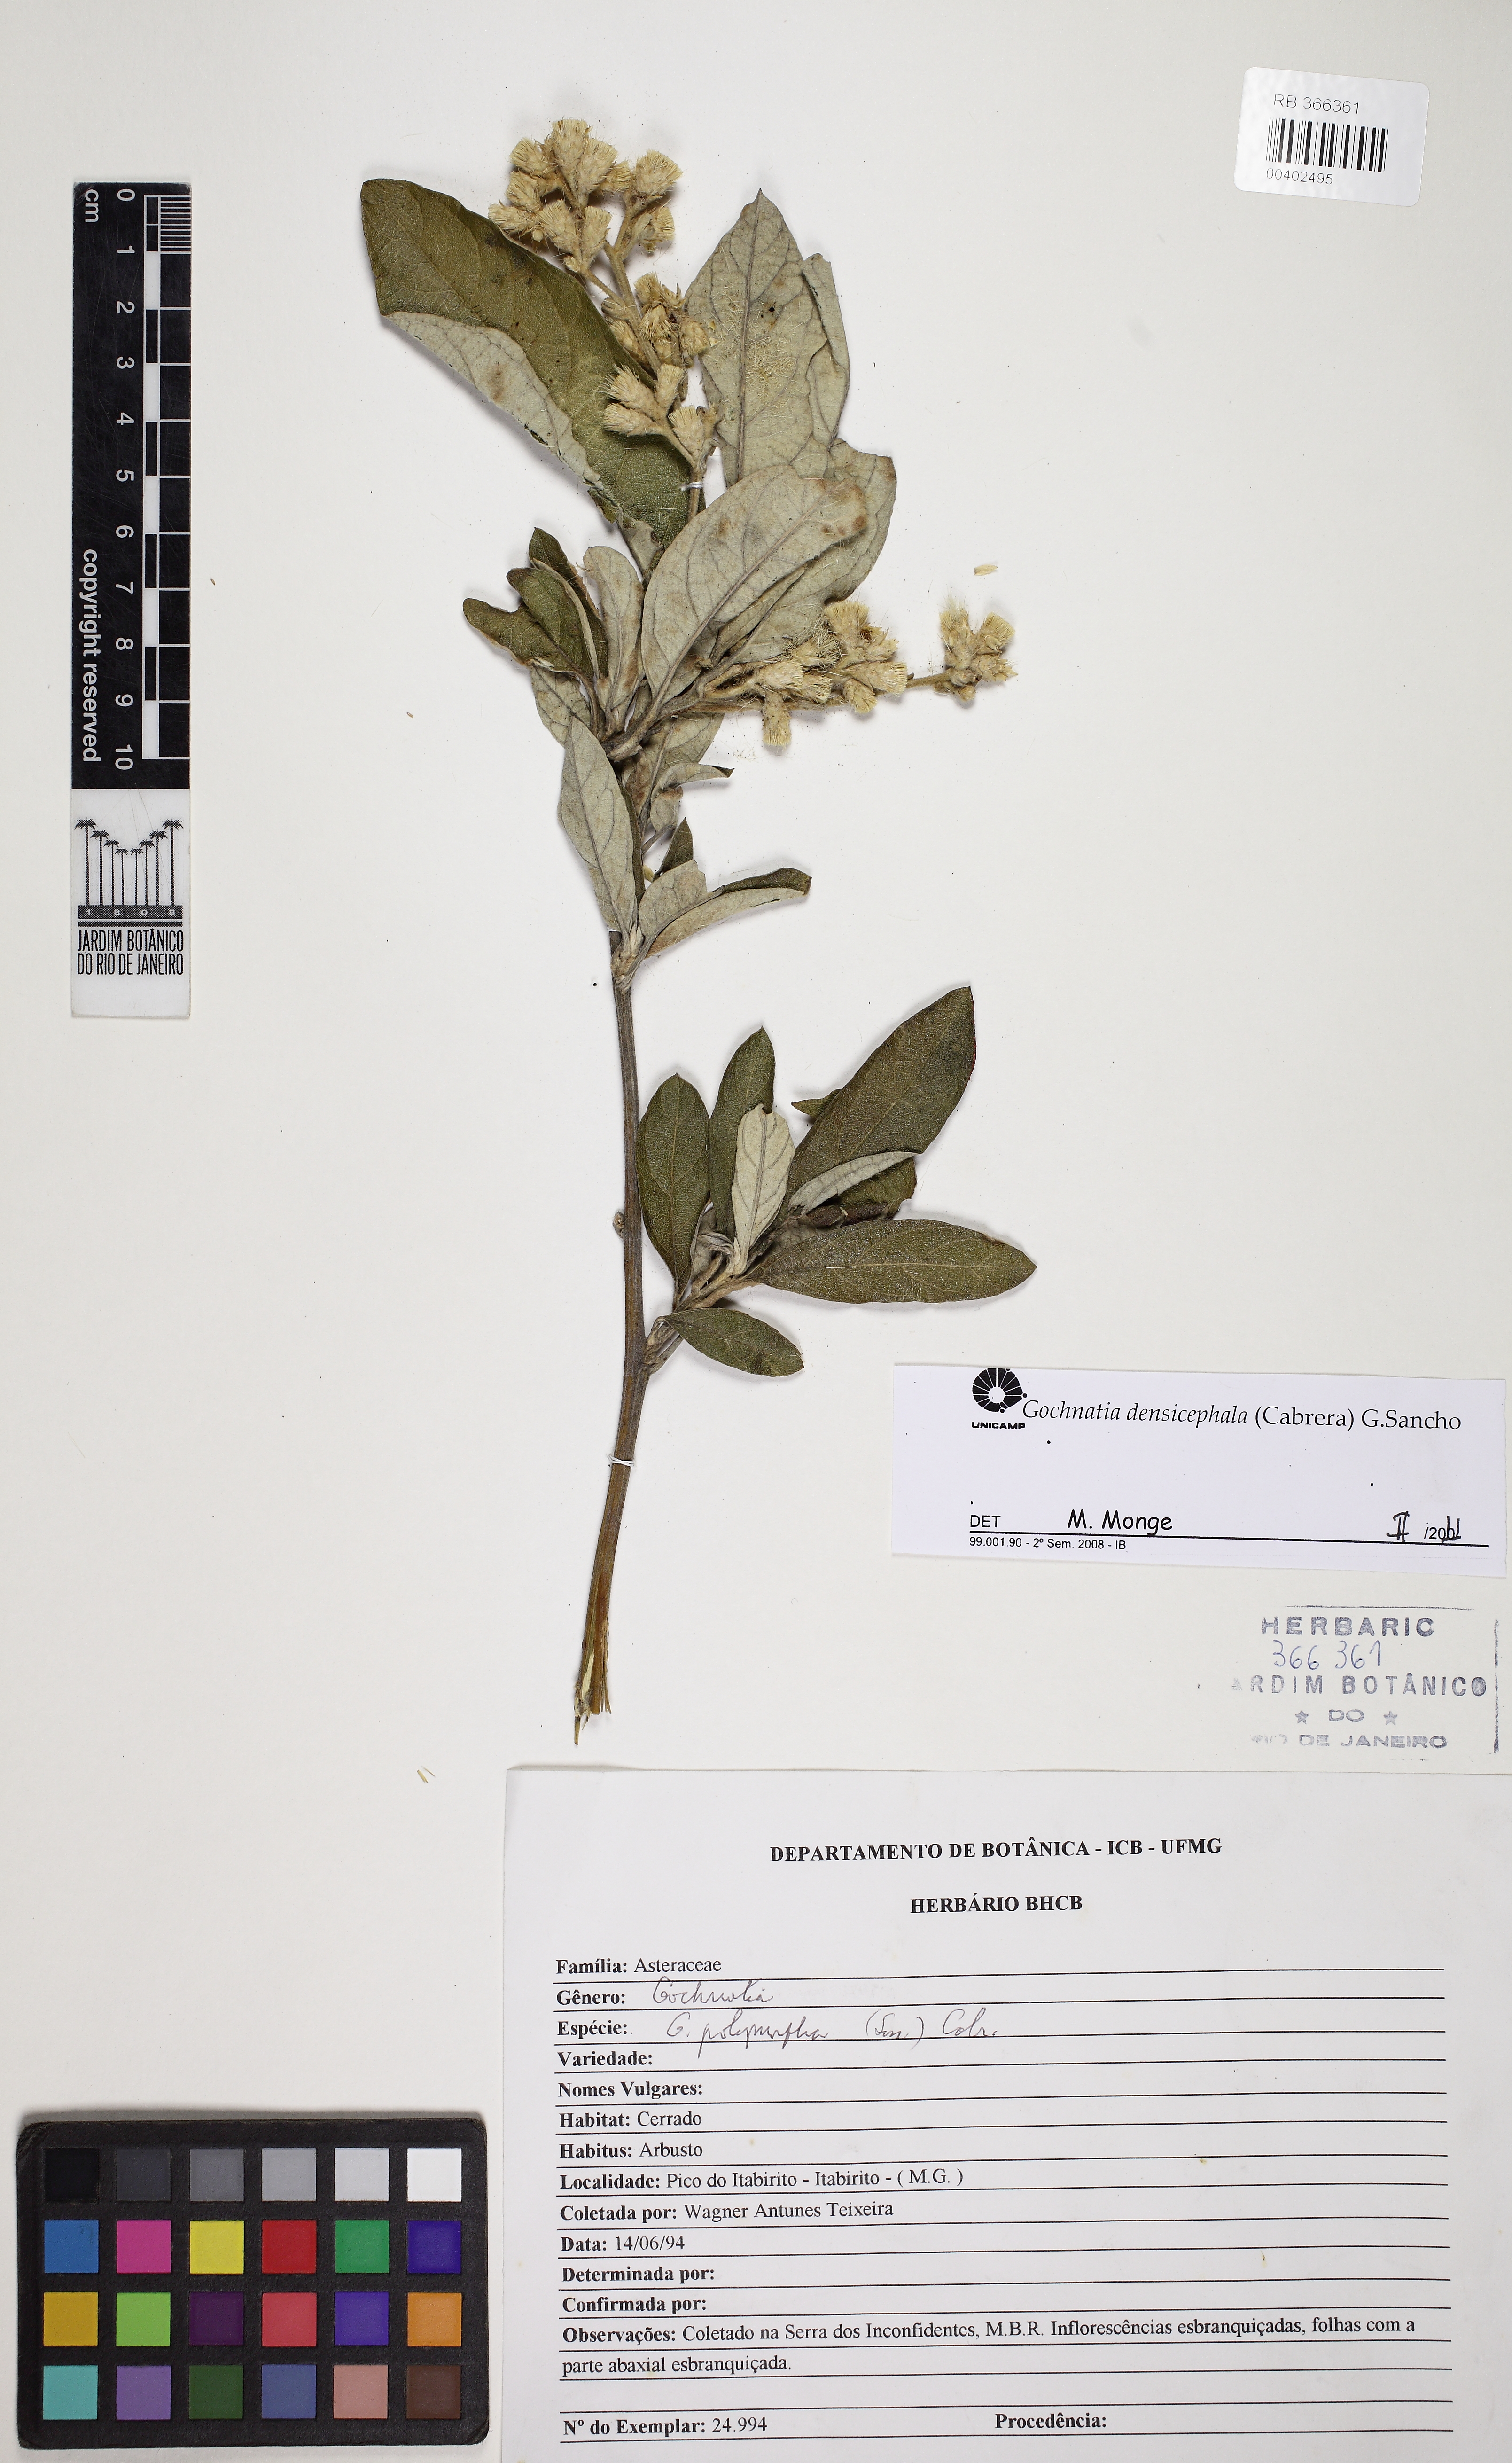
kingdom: Plantae
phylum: Tracheophyta
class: Magnoliopsida
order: Asterales
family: Asteraceae
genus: Moquiniastrum
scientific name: Moquiniastrum polymorphum
